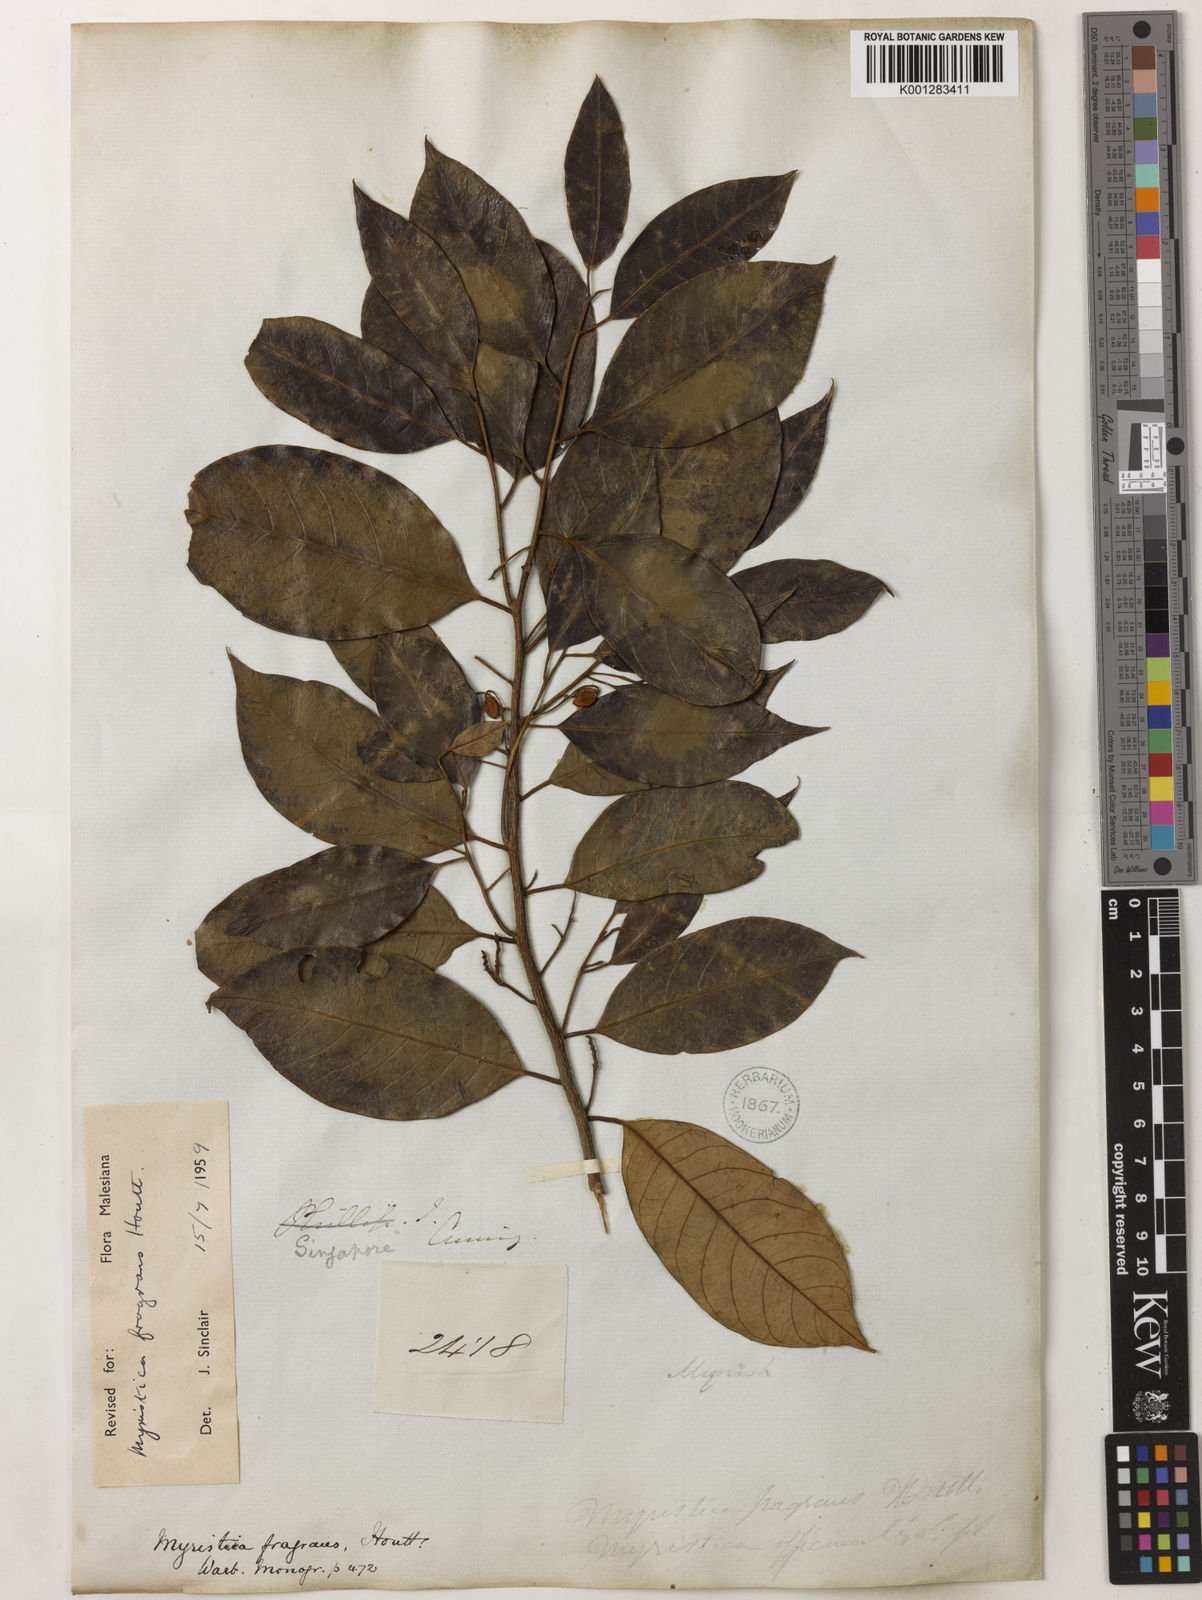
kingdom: Plantae
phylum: Tracheophyta
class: Magnoliopsida
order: Magnoliales
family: Myristicaceae
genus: Myristica
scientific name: Myristica fragrans
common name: Nutmeg
